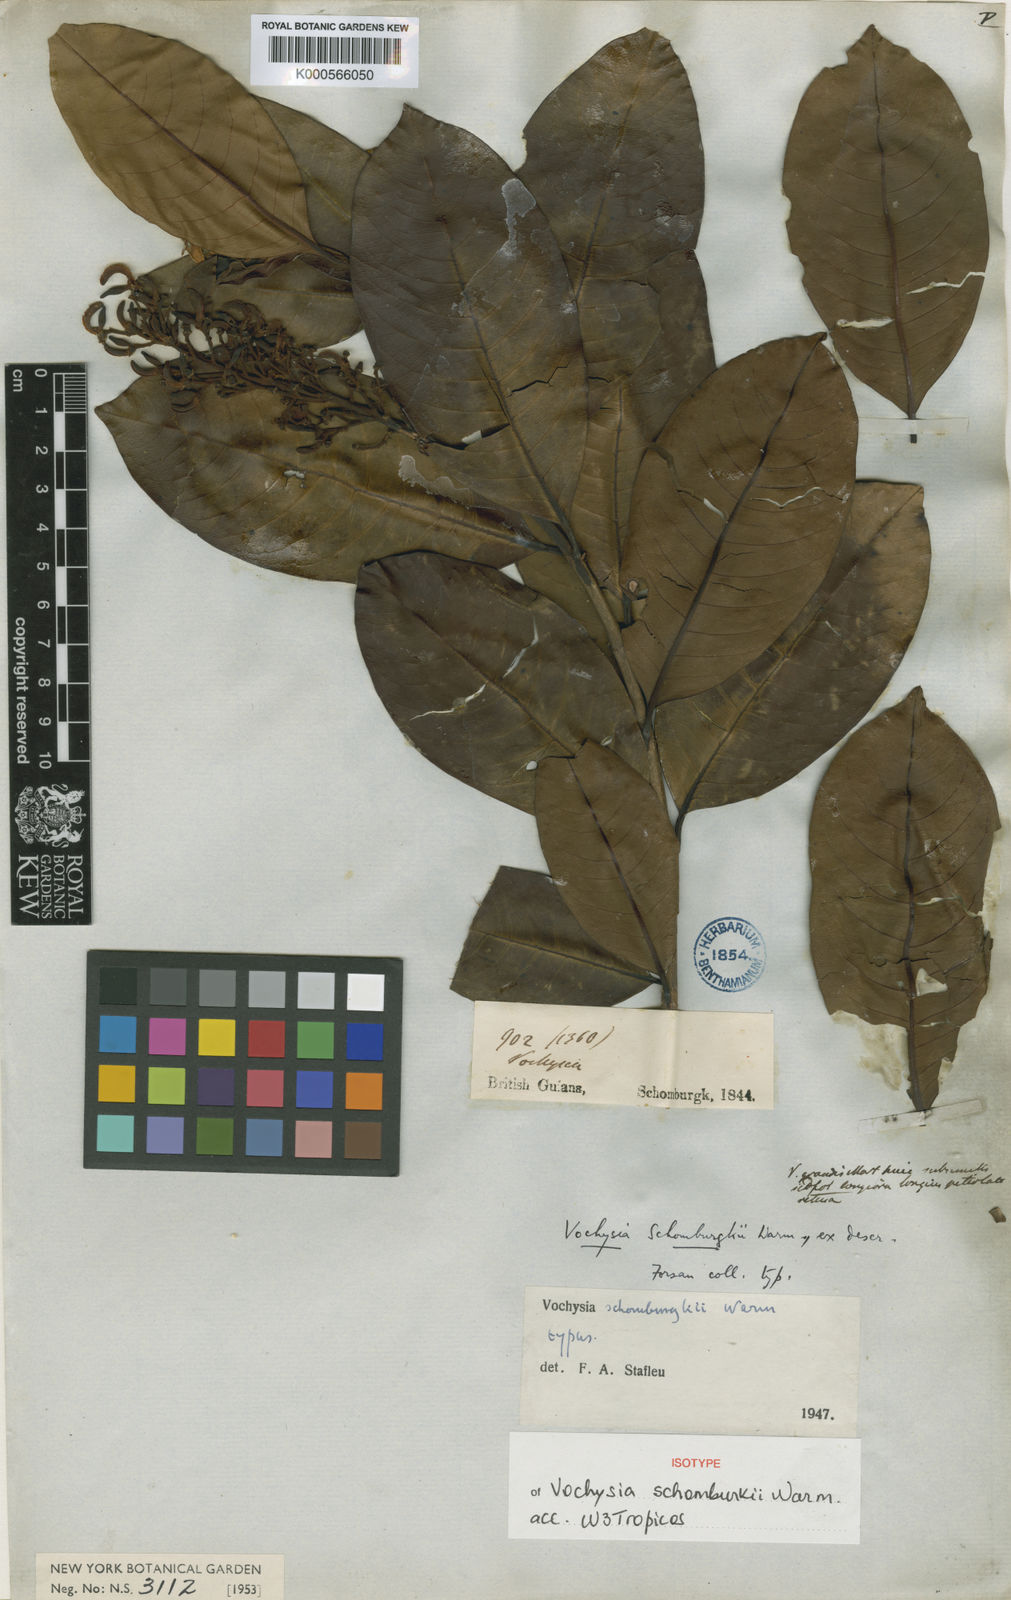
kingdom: Plantae
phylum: Tracheophyta
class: Magnoliopsida
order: Myrtales
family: Vochysiaceae
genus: Vochysia
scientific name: Vochysia schomburgkii
